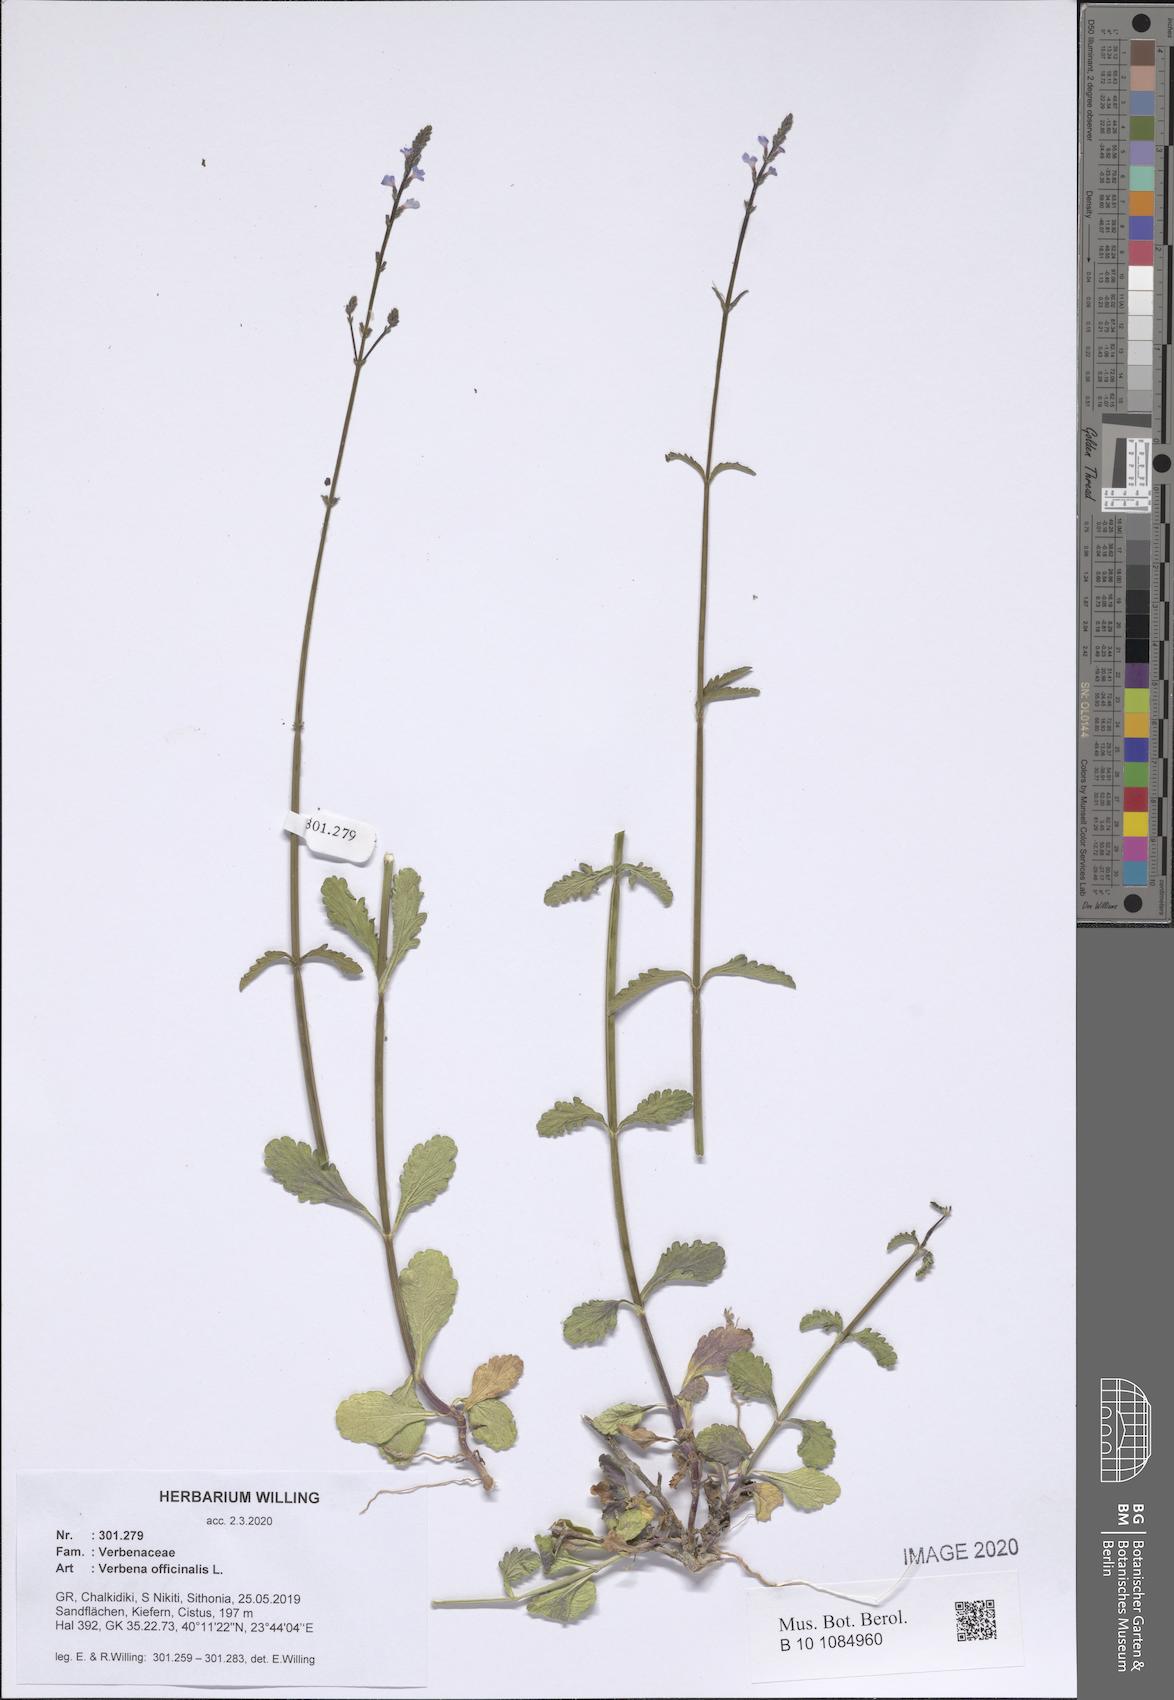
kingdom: Plantae
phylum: Tracheophyta
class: Magnoliopsida
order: Lamiales
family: Verbenaceae
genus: Verbena
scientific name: Verbena officinalis
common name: Vervain
